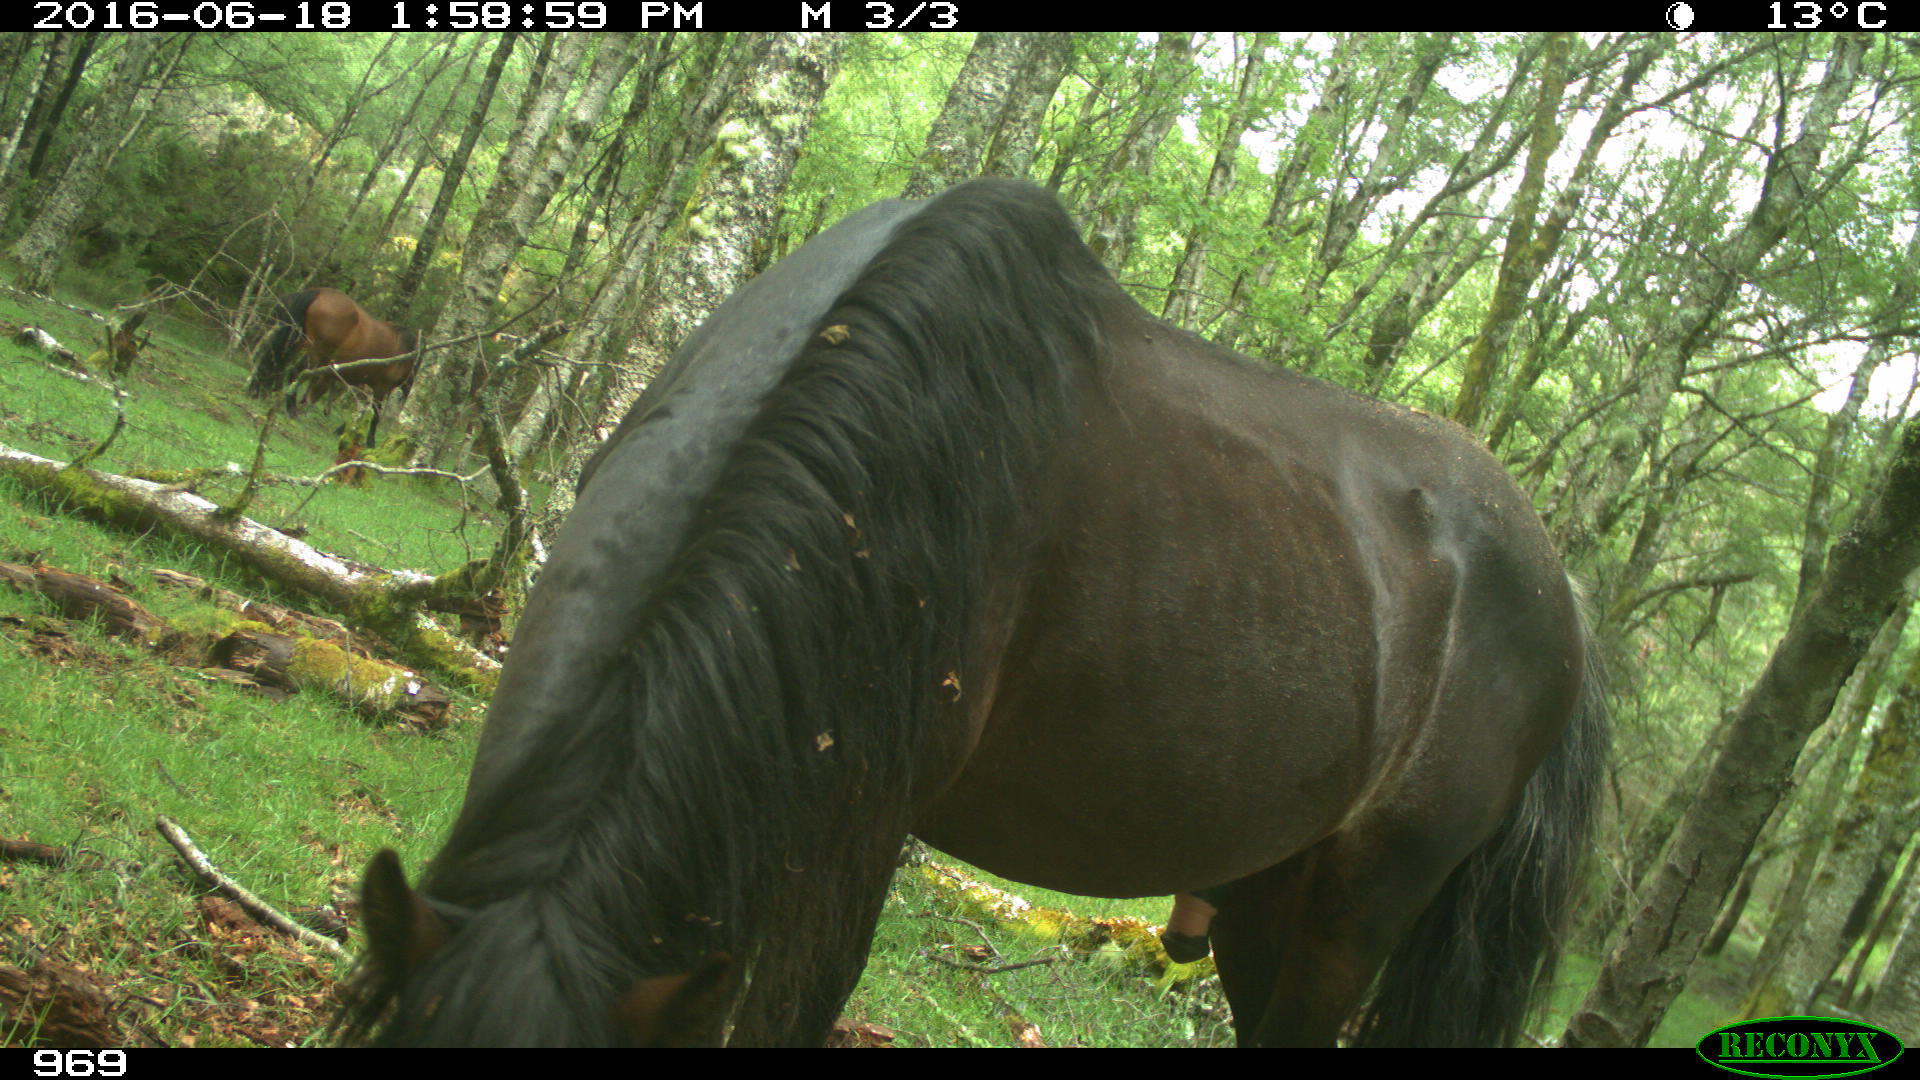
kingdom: Animalia
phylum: Chordata
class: Mammalia
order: Perissodactyla
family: Equidae
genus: Equus
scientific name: Equus caballus
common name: Horse
